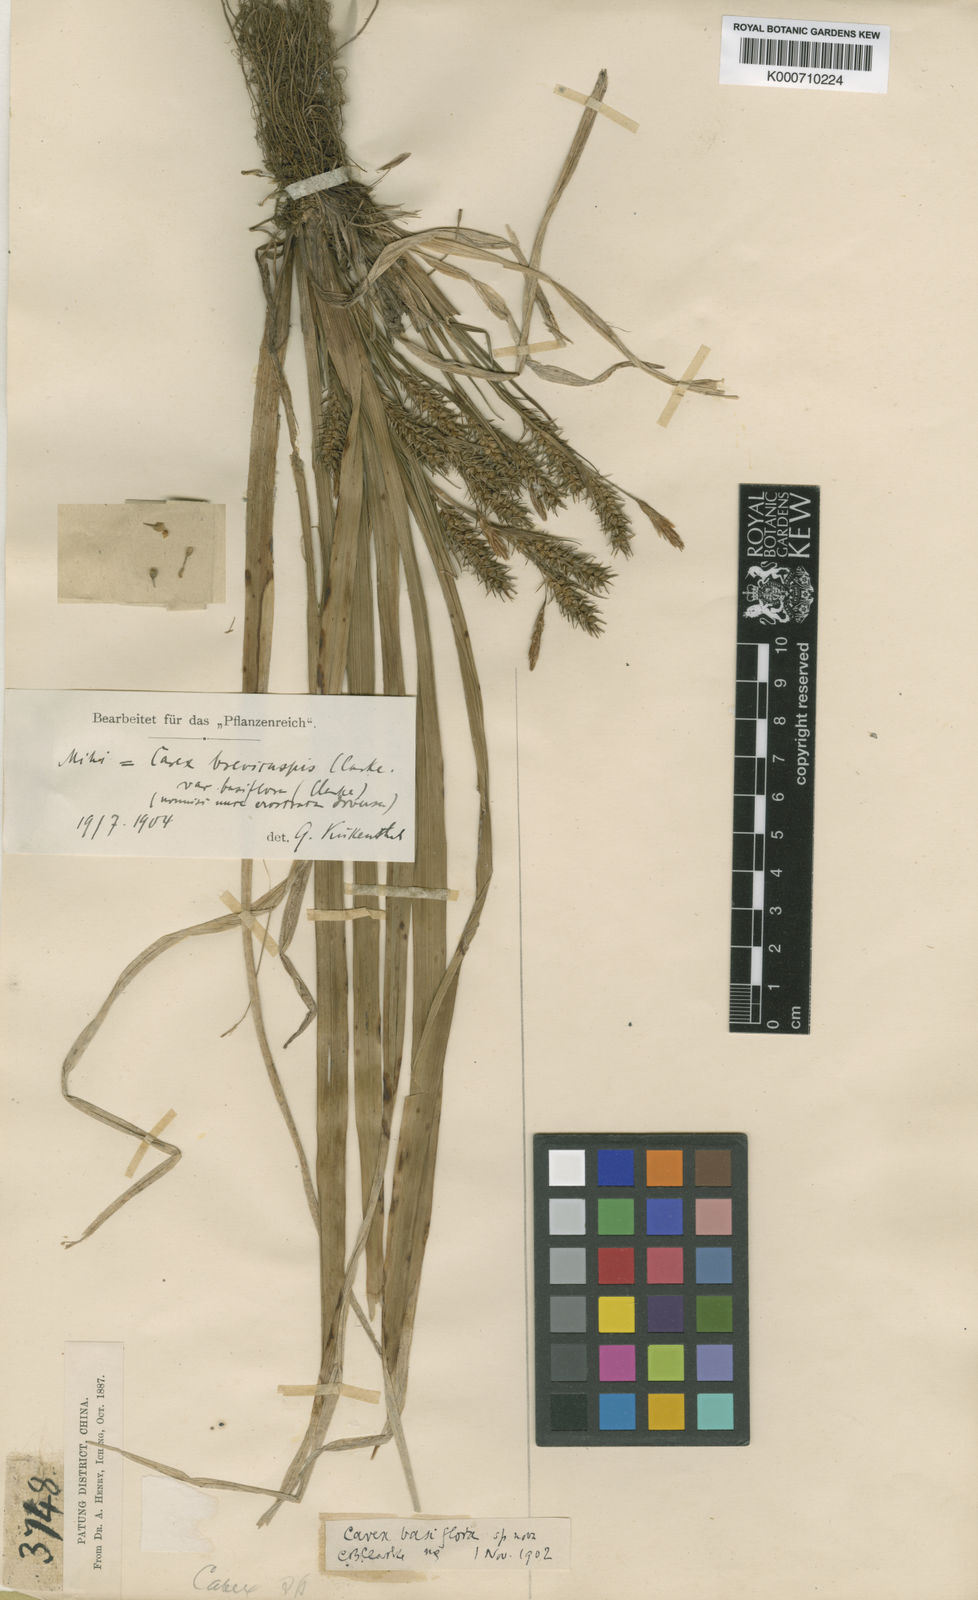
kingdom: Plantae
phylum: Tracheophyta
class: Liliopsida
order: Poales
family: Cyperaceae
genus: Carex
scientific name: Carex
